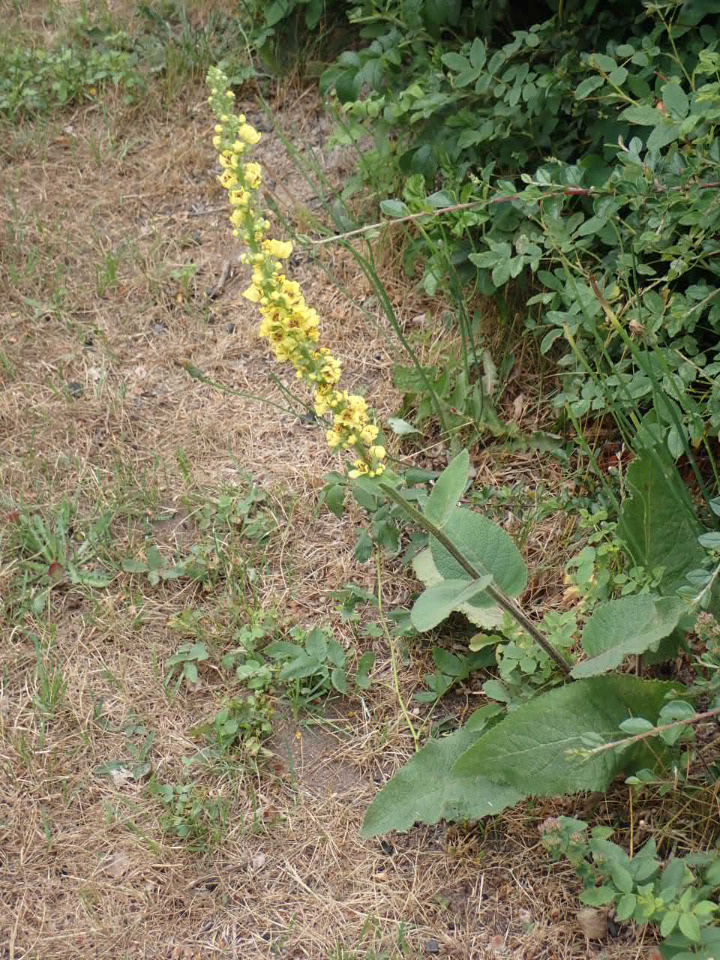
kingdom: Plantae
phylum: Tracheophyta
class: Magnoliopsida
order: Lamiales
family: Scrophulariaceae
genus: Verbascum
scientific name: Verbascum nigrum
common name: Mørk kongelys
